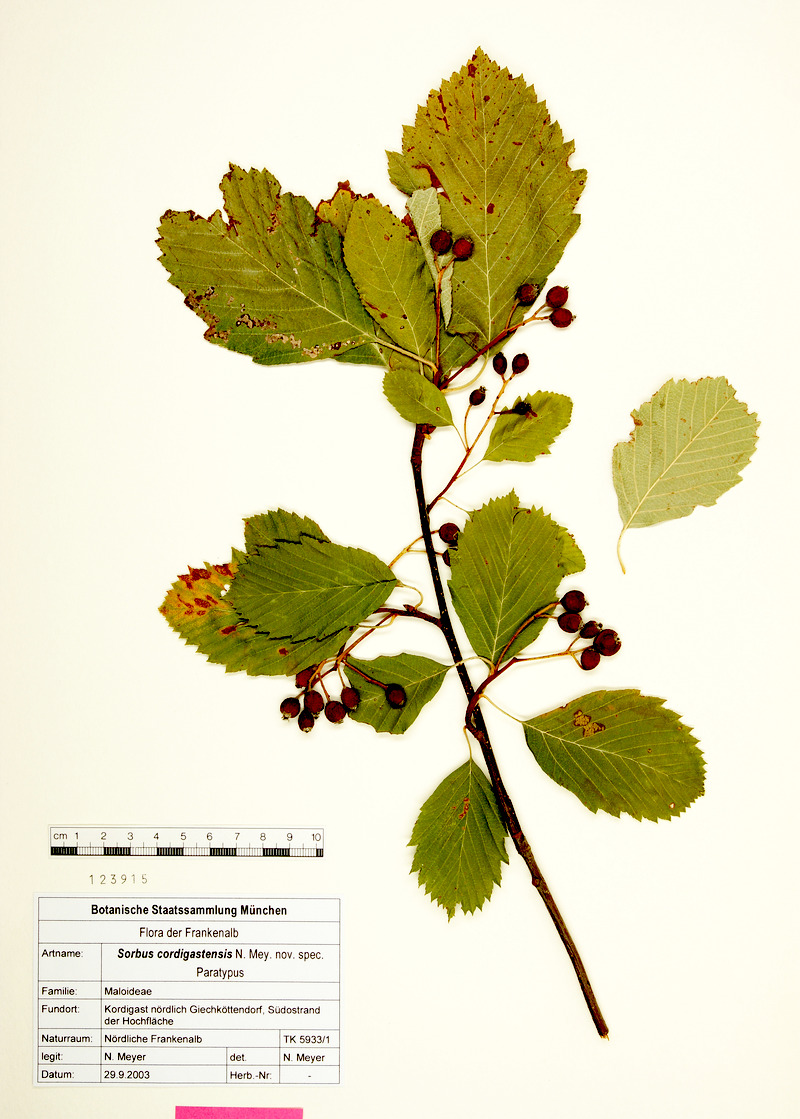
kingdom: Plantae
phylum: Tracheophyta
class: Magnoliopsida
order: Rosales
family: Rosaceae
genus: Karpatiosorbus
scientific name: Karpatiosorbus cordigastensis
